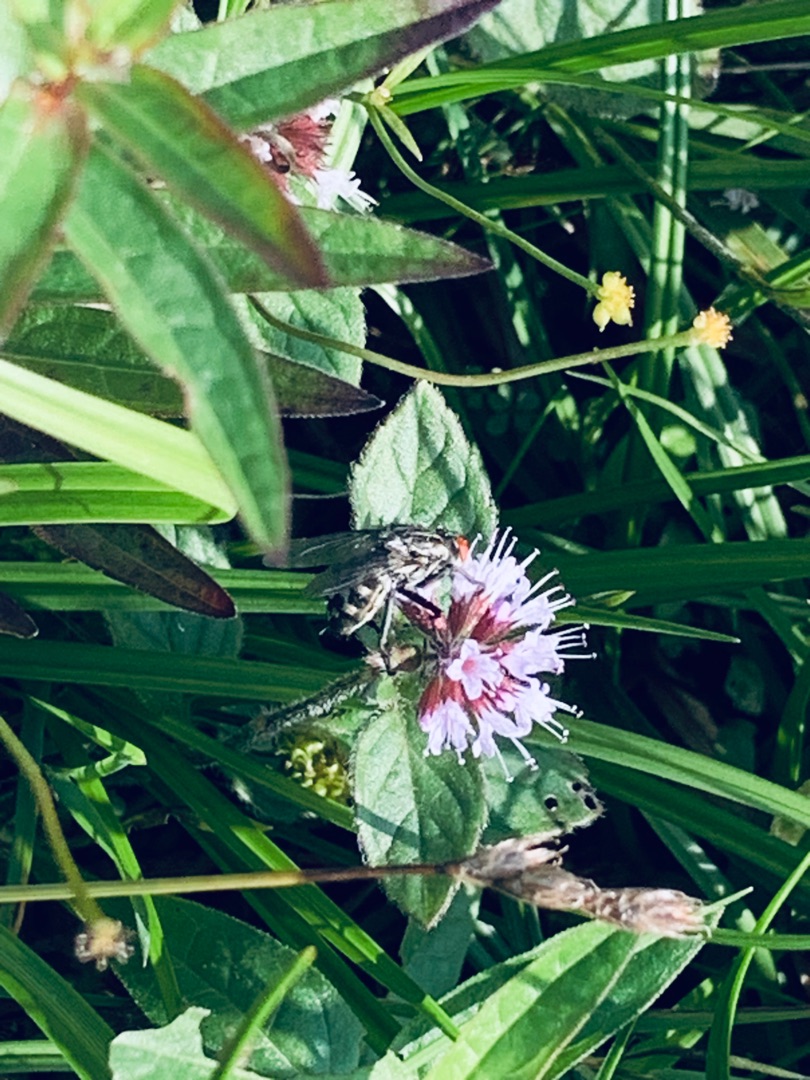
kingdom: Animalia
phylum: Arthropoda
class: Insecta
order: Diptera
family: Sarcophagidae
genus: Sarcophaga
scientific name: Sarcophaga
